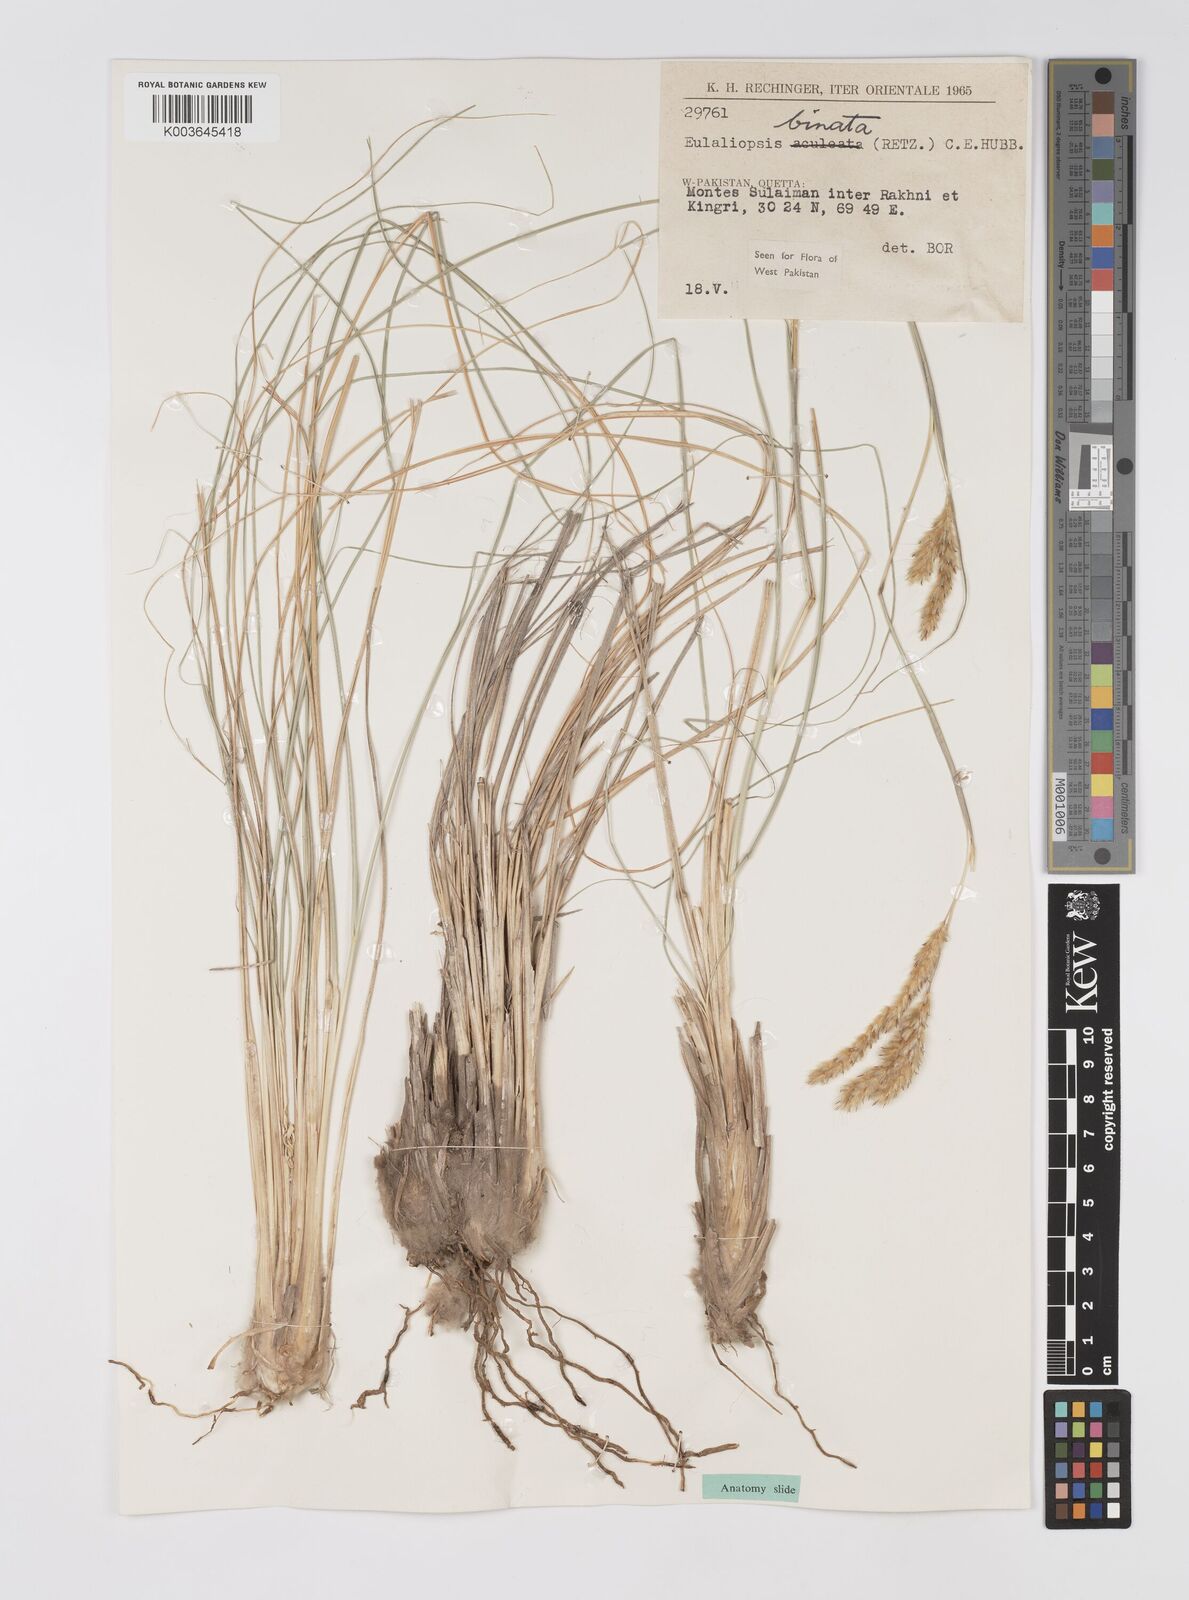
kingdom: Plantae
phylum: Tracheophyta
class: Liliopsida
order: Poales
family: Poaceae
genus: Eulaliopsis
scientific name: Eulaliopsis binata
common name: Baib grass
